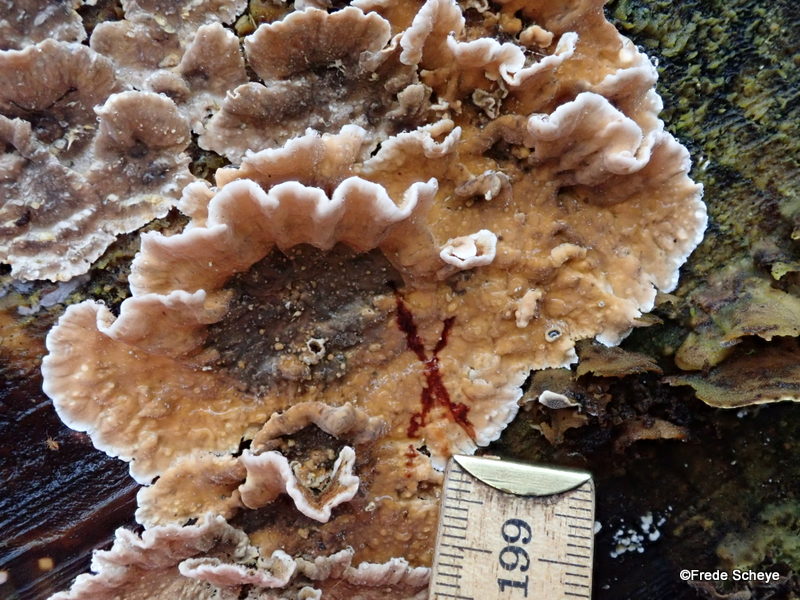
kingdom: Fungi
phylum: Basidiomycota
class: Agaricomycetes
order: Russulales
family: Stereaceae
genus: Stereum
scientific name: Stereum sanguinolentum
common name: blødende lædersvamp
